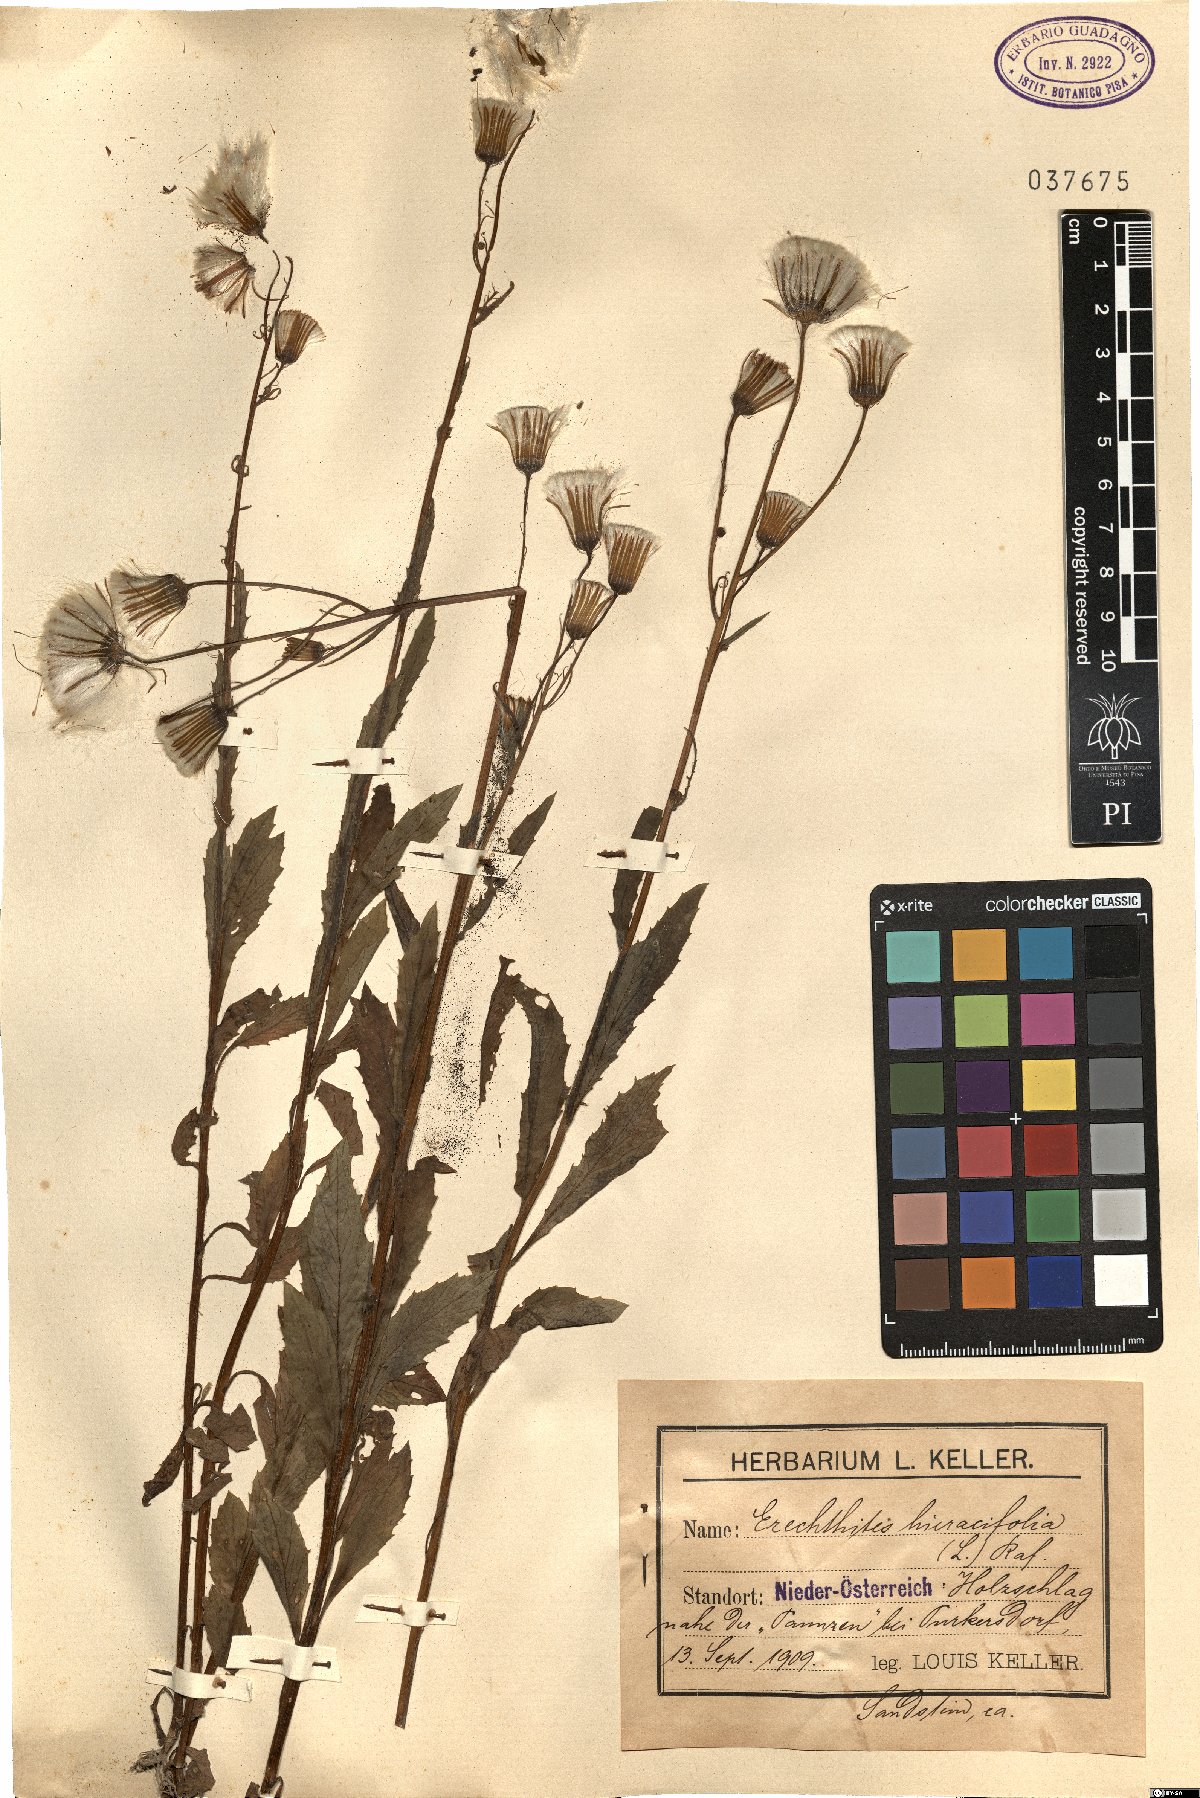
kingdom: Plantae
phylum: Tracheophyta
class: Magnoliopsida
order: Asterales
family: Asteraceae
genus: Erechtites
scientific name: Erechtites hieraciifolius
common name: American burnweed
